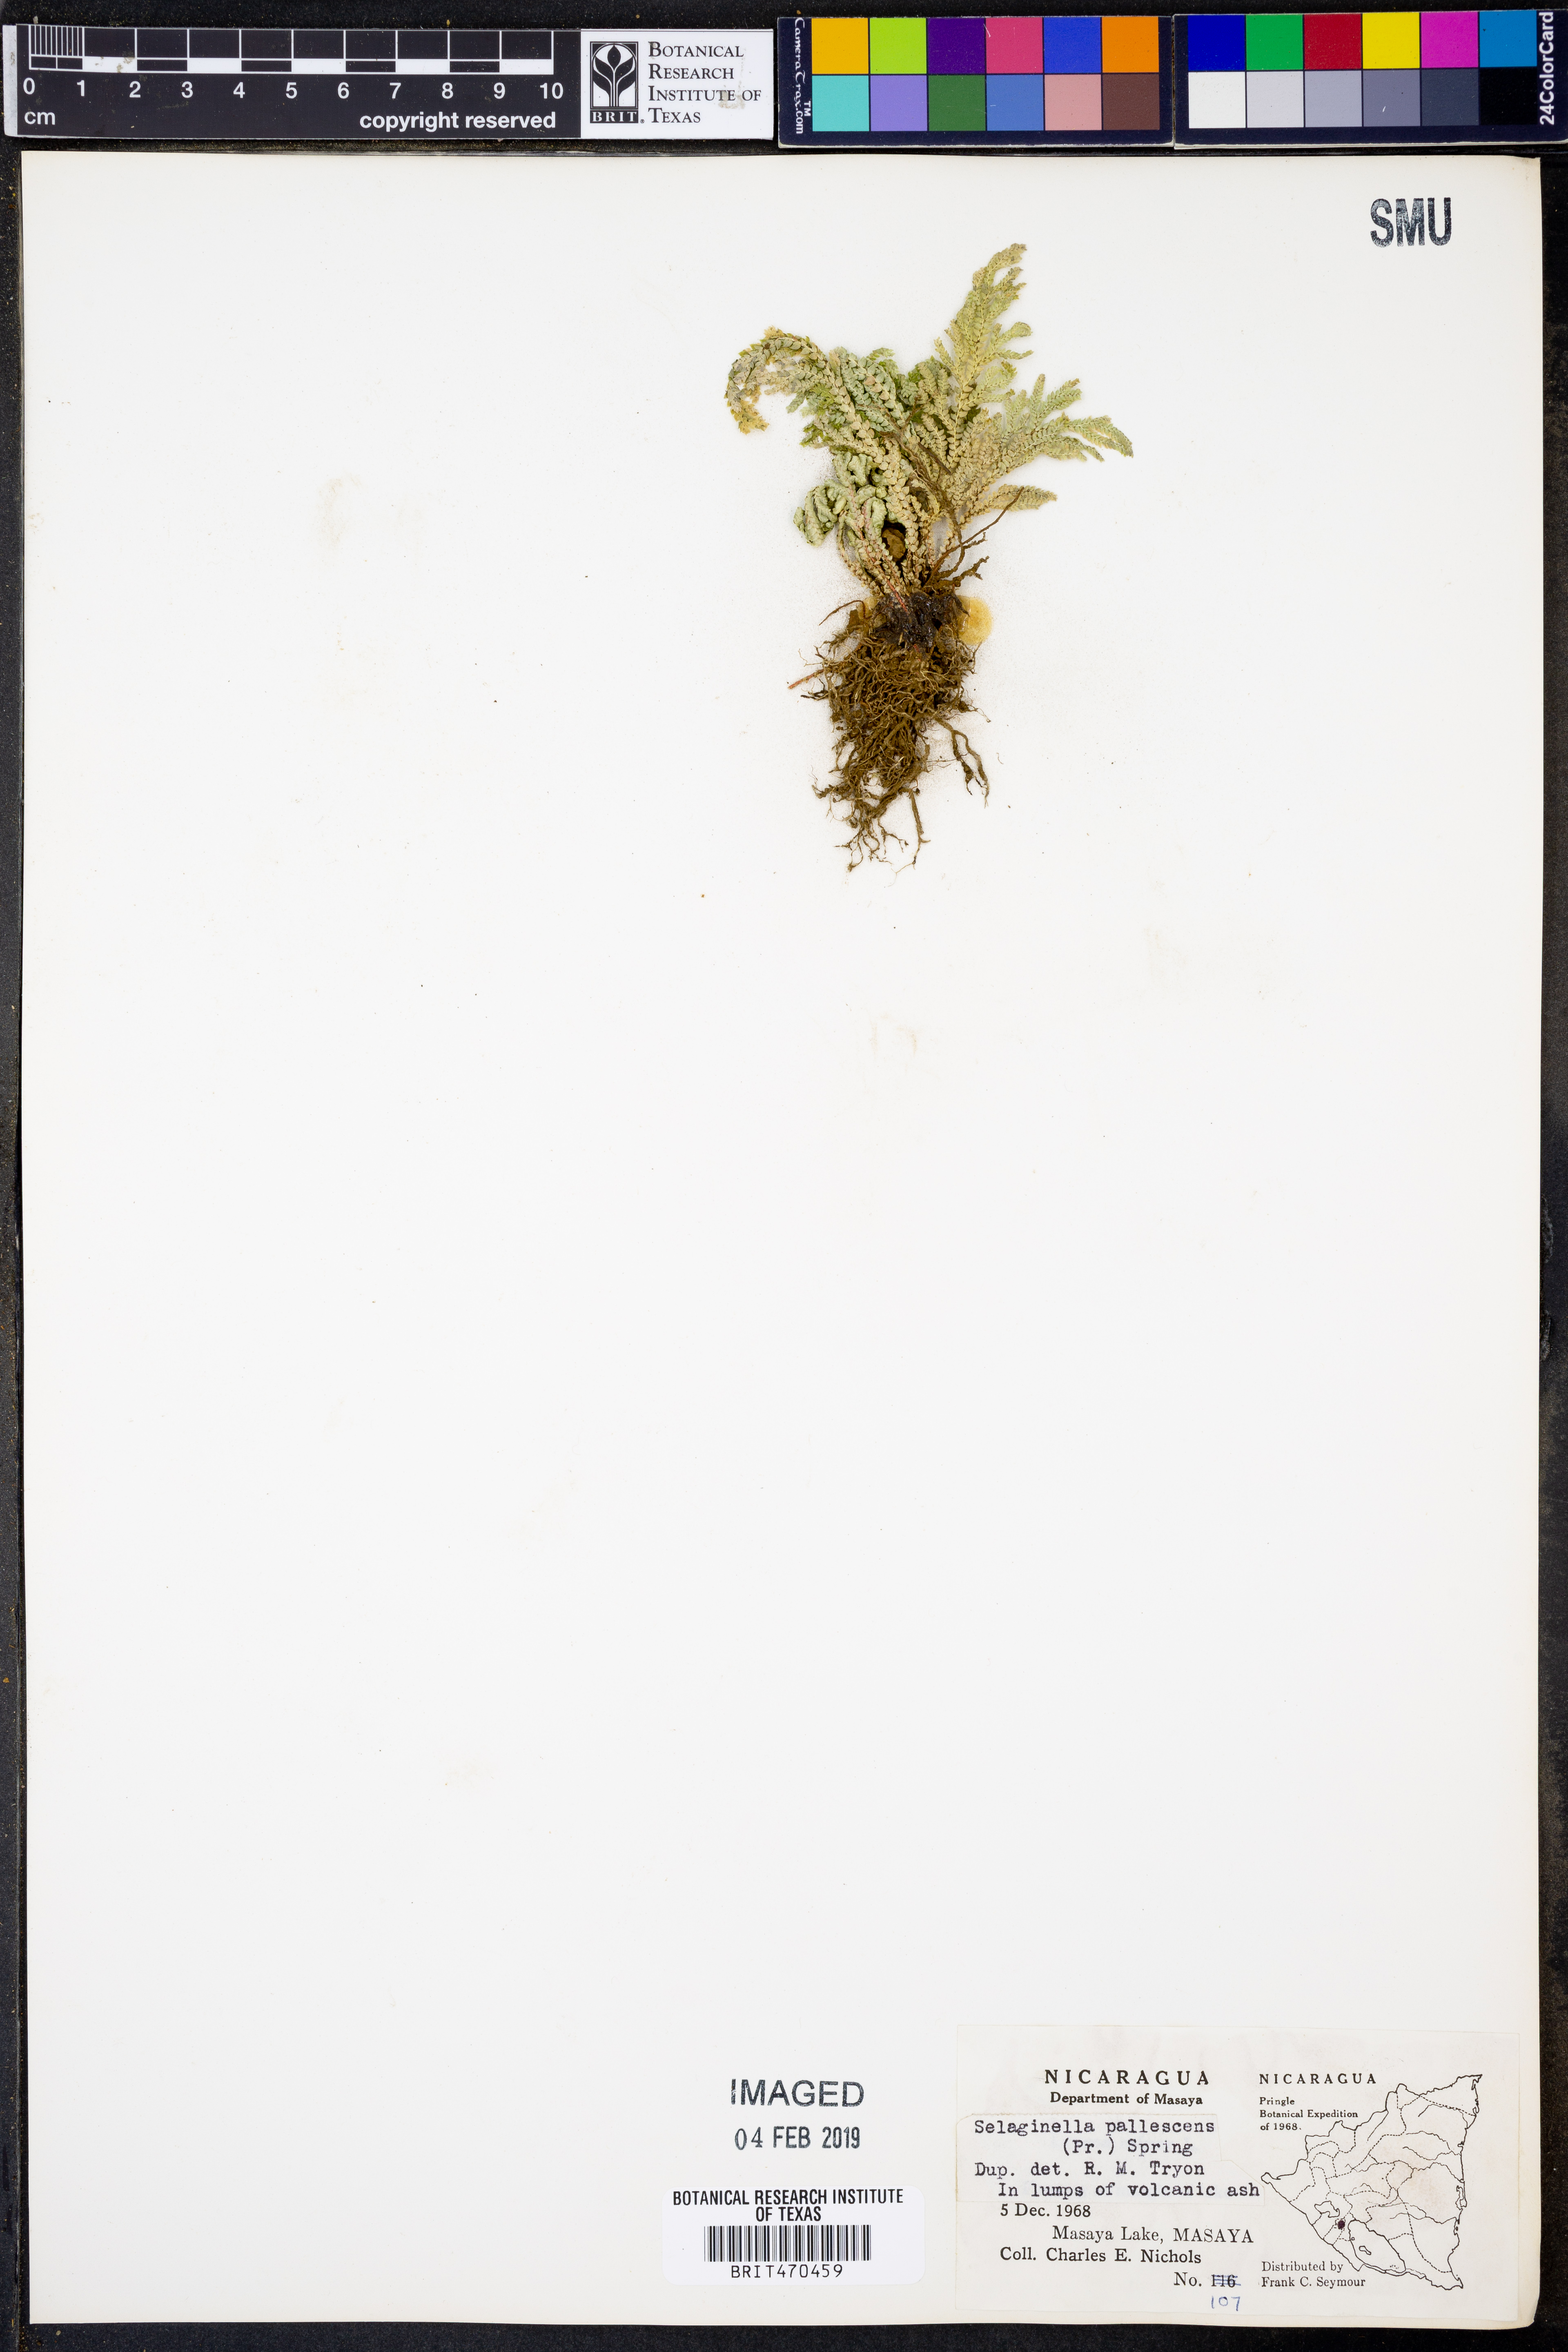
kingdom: Plantae
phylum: Tracheophyta
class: Lycopodiopsida
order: Selaginellales
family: Selaginellaceae
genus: Selaginella
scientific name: Selaginella pallescens
